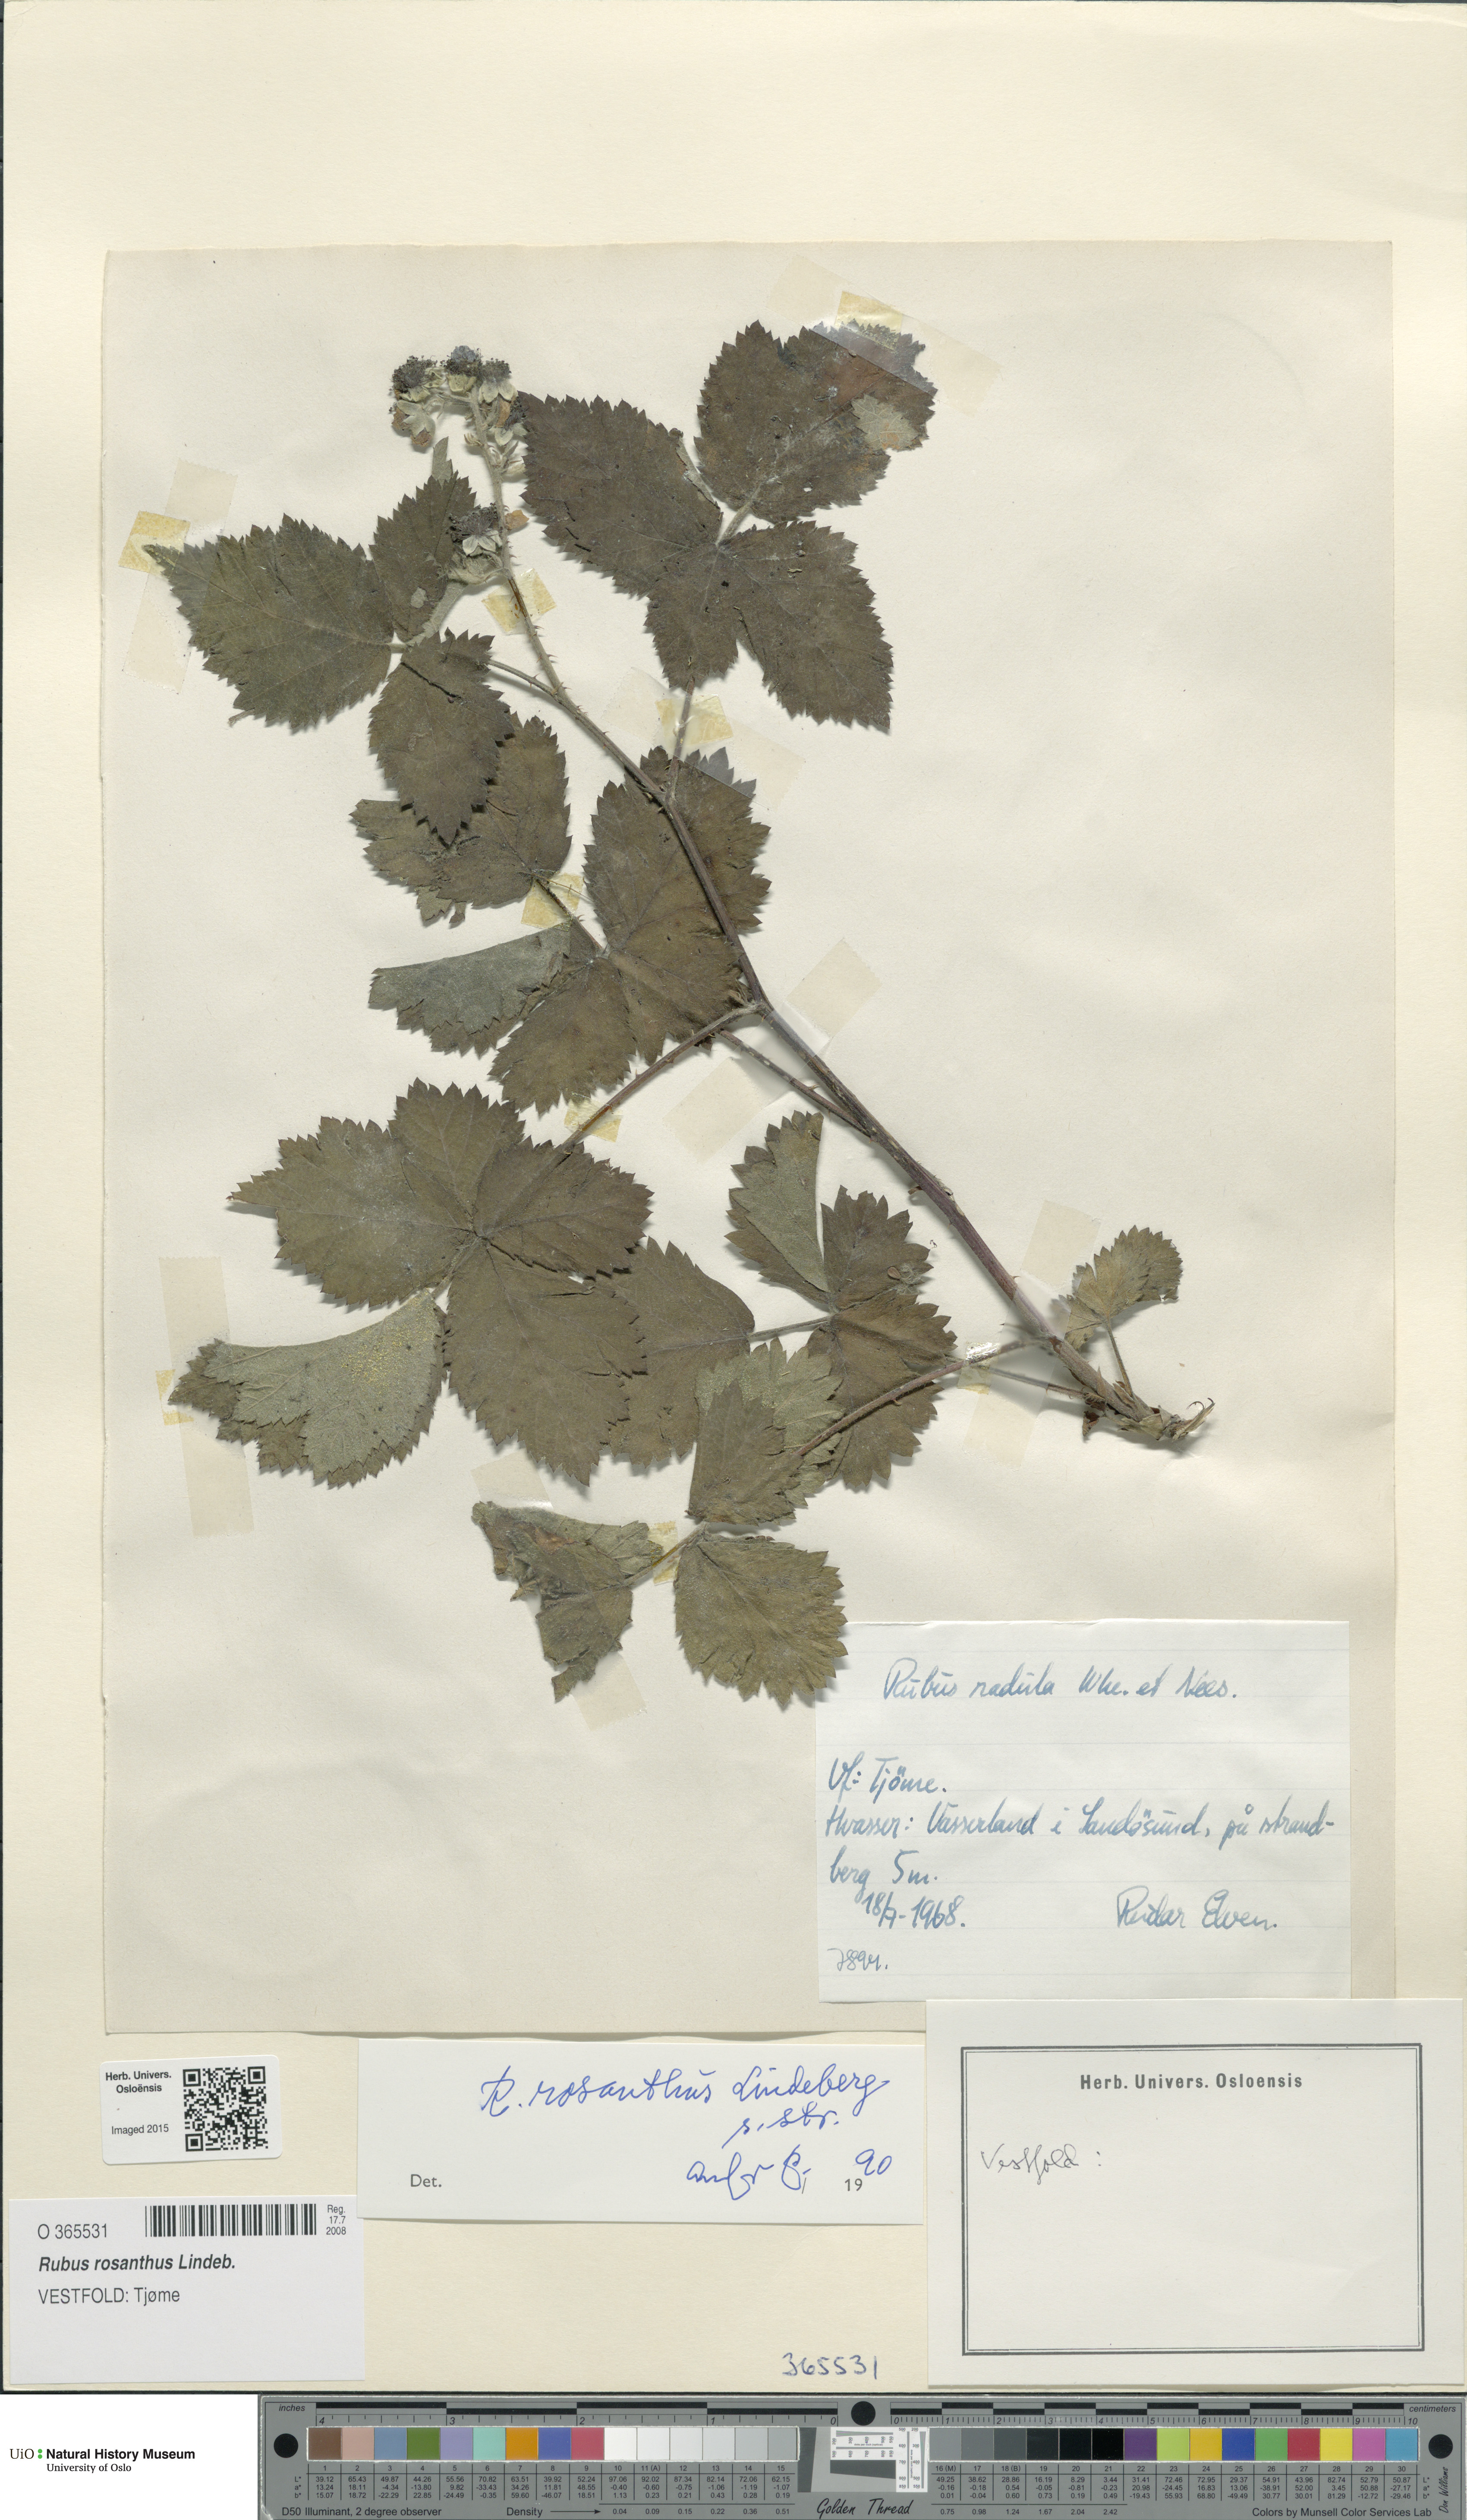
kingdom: Plantae
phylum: Tracheophyta
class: Magnoliopsida
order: Rosales
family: Rosaceae
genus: Rubus
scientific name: Rubus rosanthus
